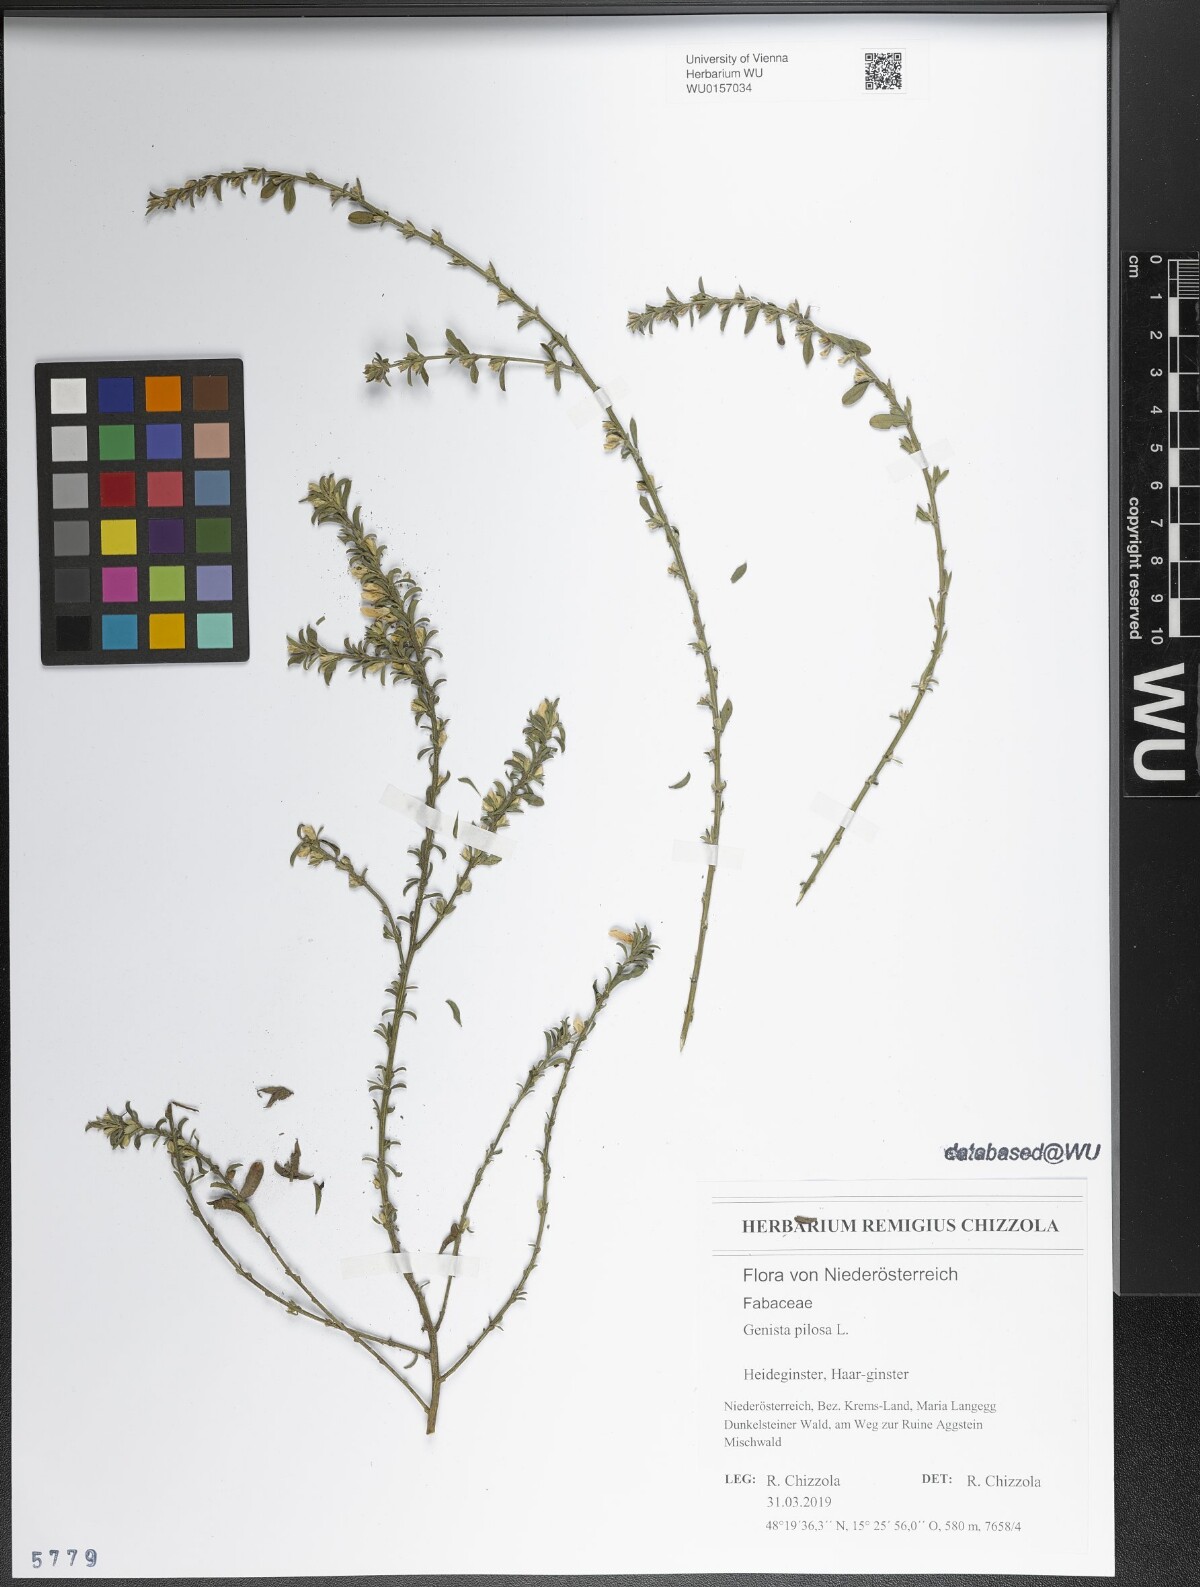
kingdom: Plantae
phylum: Tracheophyta
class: Magnoliopsida
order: Fabales
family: Fabaceae
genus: Genista
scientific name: Genista pilosa
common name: Hairy greenweed
